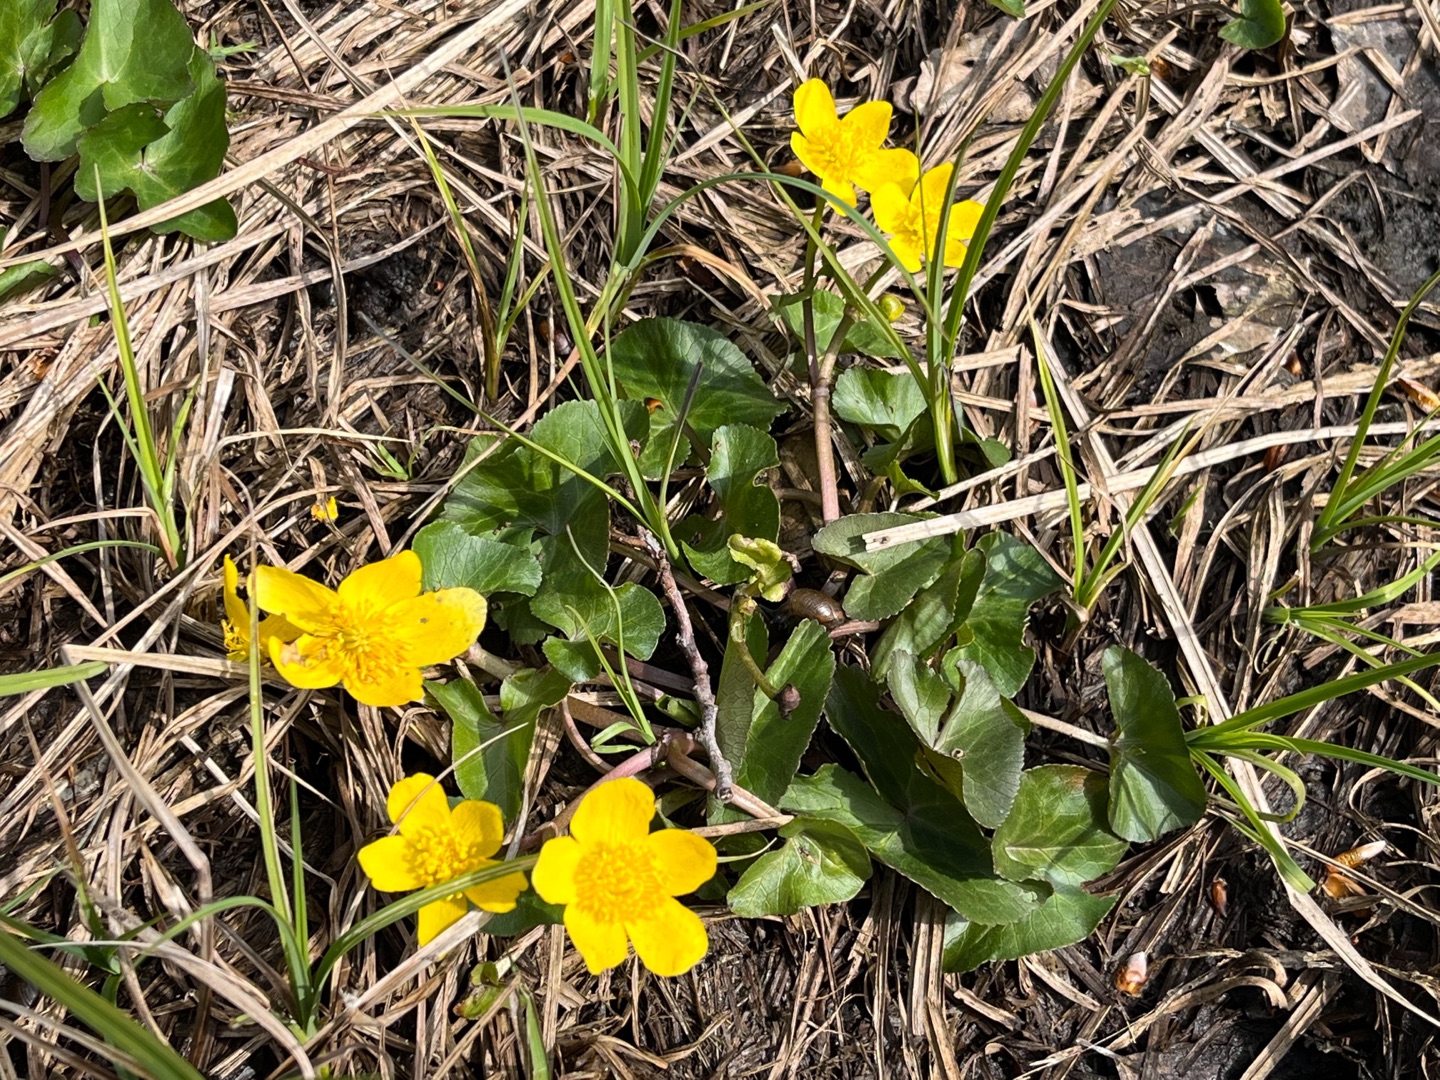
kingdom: Plantae
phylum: Tracheophyta
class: Magnoliopsida
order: Ranunculales
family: Ranunculaceae
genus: Caltha
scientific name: Caltha palustris
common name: Eng-kabbeleje
